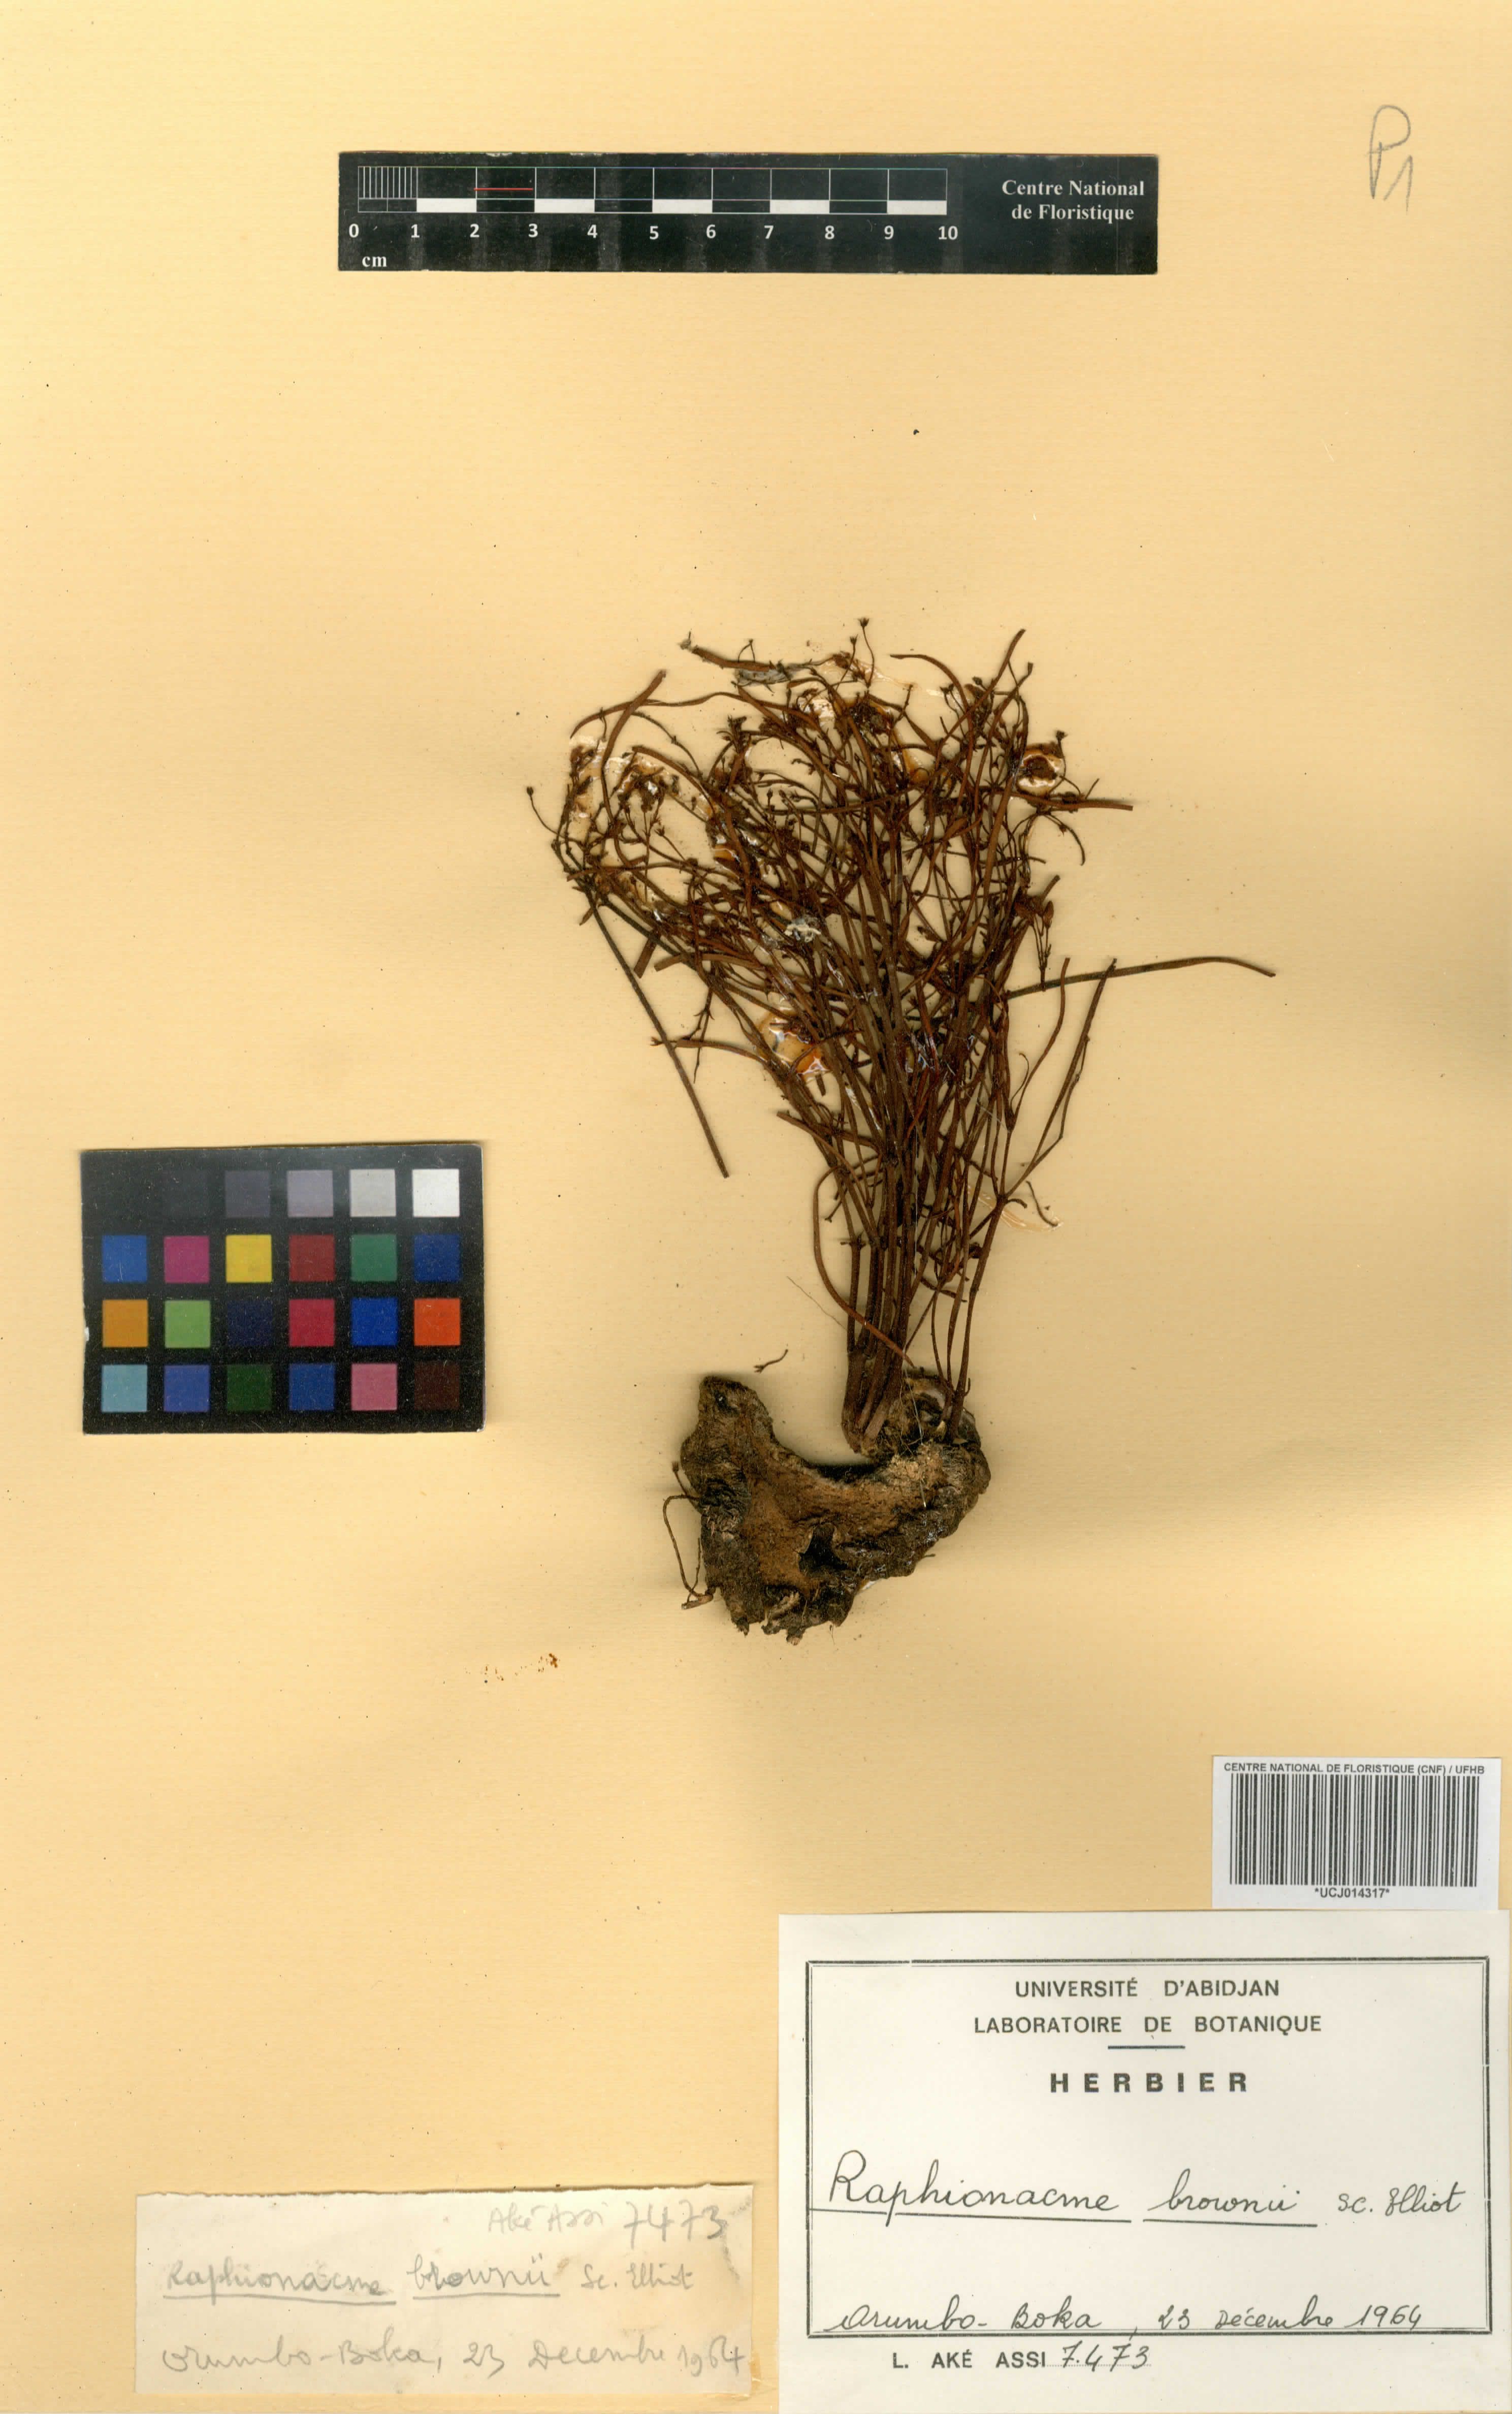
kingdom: Plantae
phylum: Tracheophyta
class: Magnoliopsida
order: Gentianales
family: Apocynaceae
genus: Raphionacme
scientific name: Raphionacme brownii
